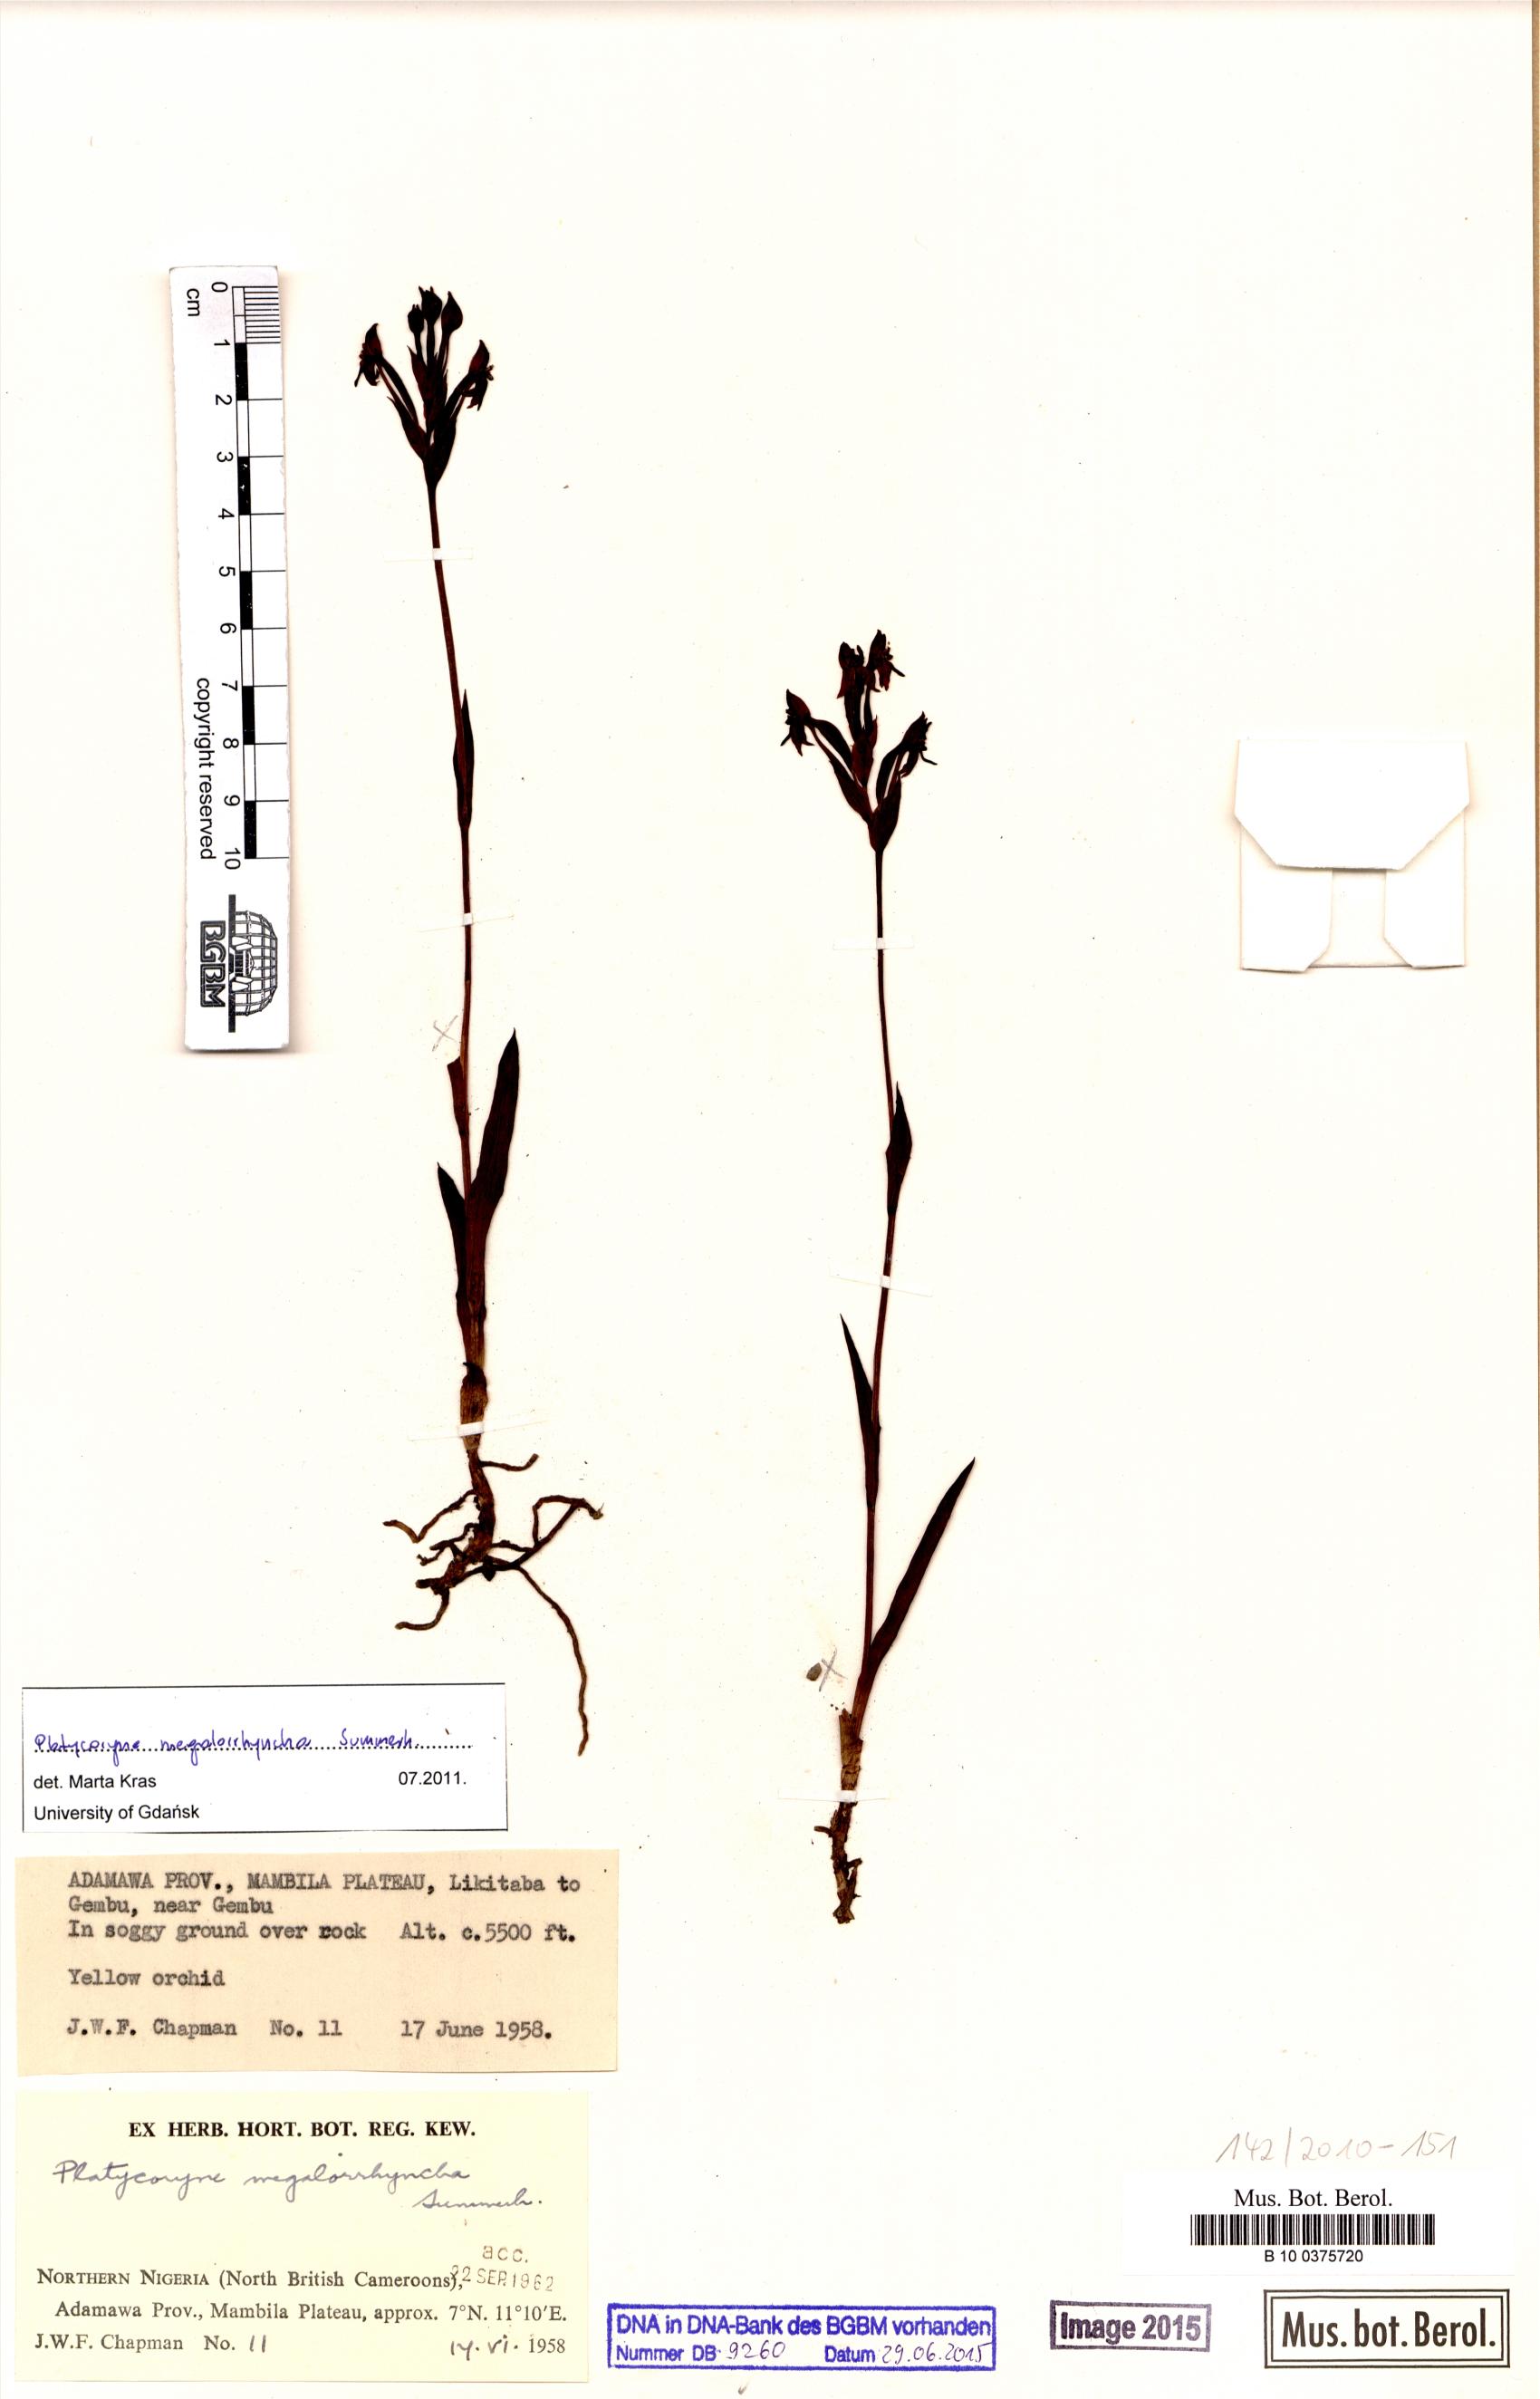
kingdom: Plantae
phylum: Tracheophyta
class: Liliopsida
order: Asparagales
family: Orchidaceae
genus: Platycoryne
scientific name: Platycoryne megalorrhyncha
